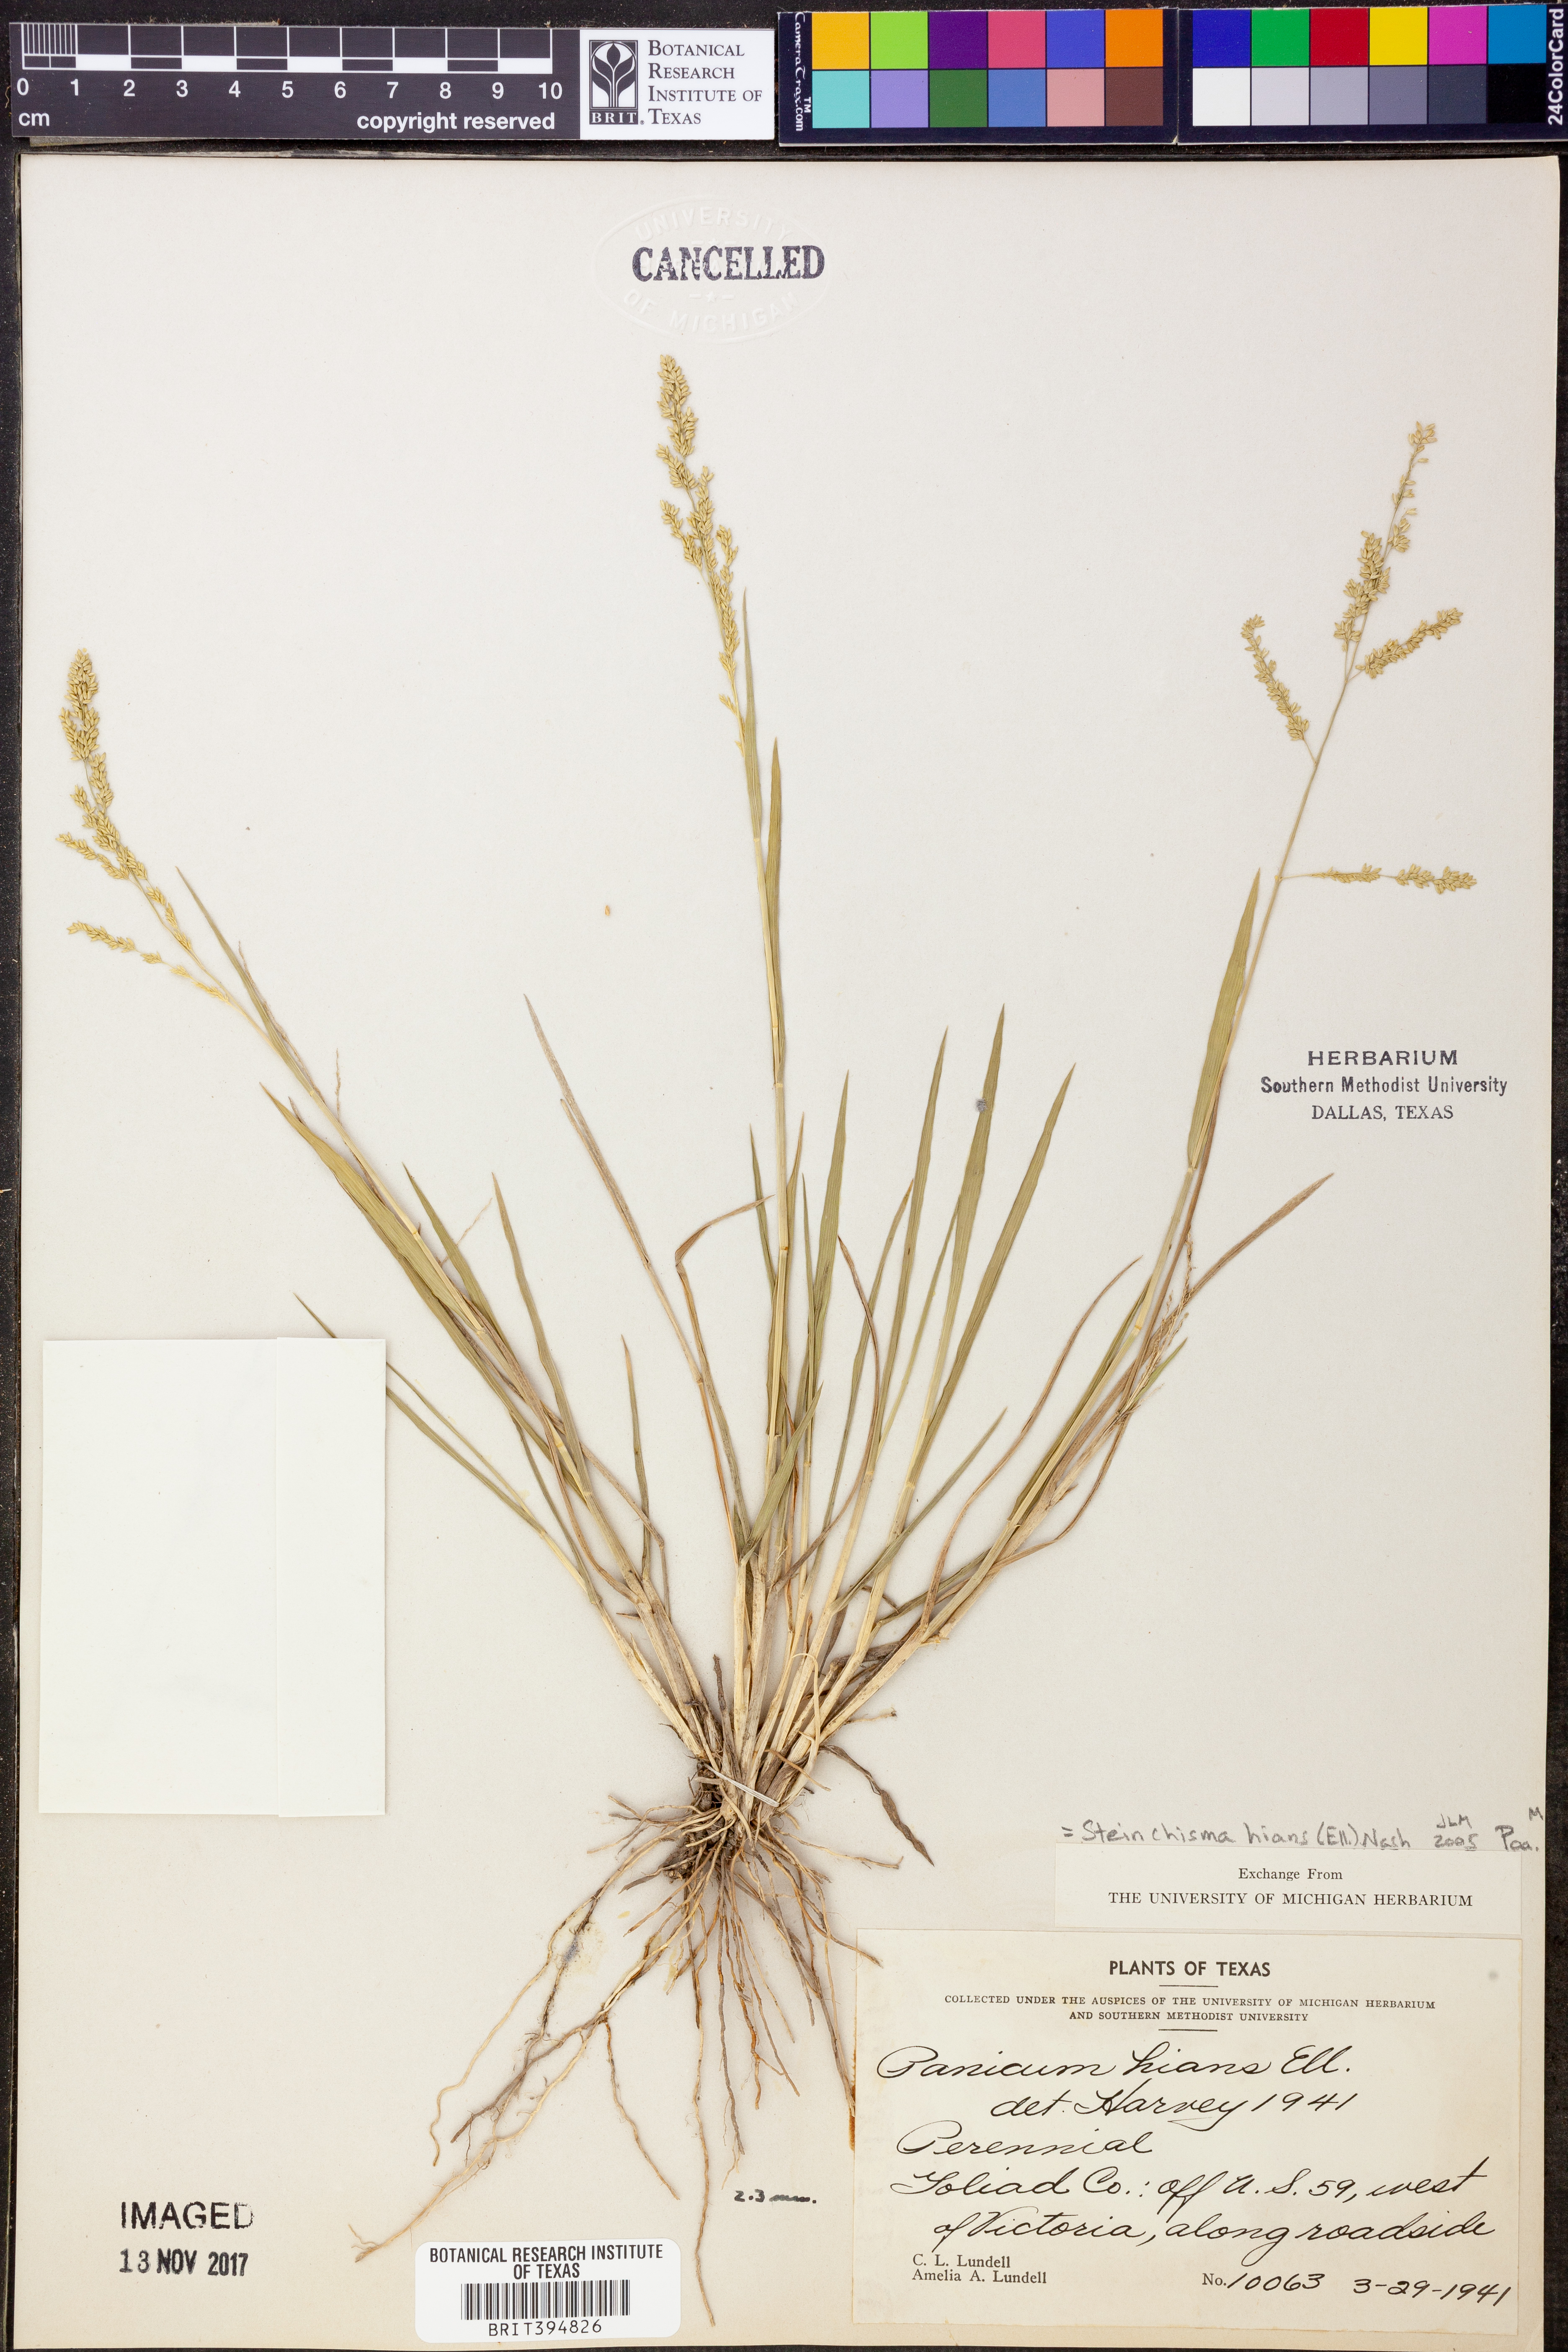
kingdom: Plantae
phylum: Tracheophyta
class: Liliopsida
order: Poales
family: Poaceae
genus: Steinchisma
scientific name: Steinchisma hians
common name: Gaping panic grass
